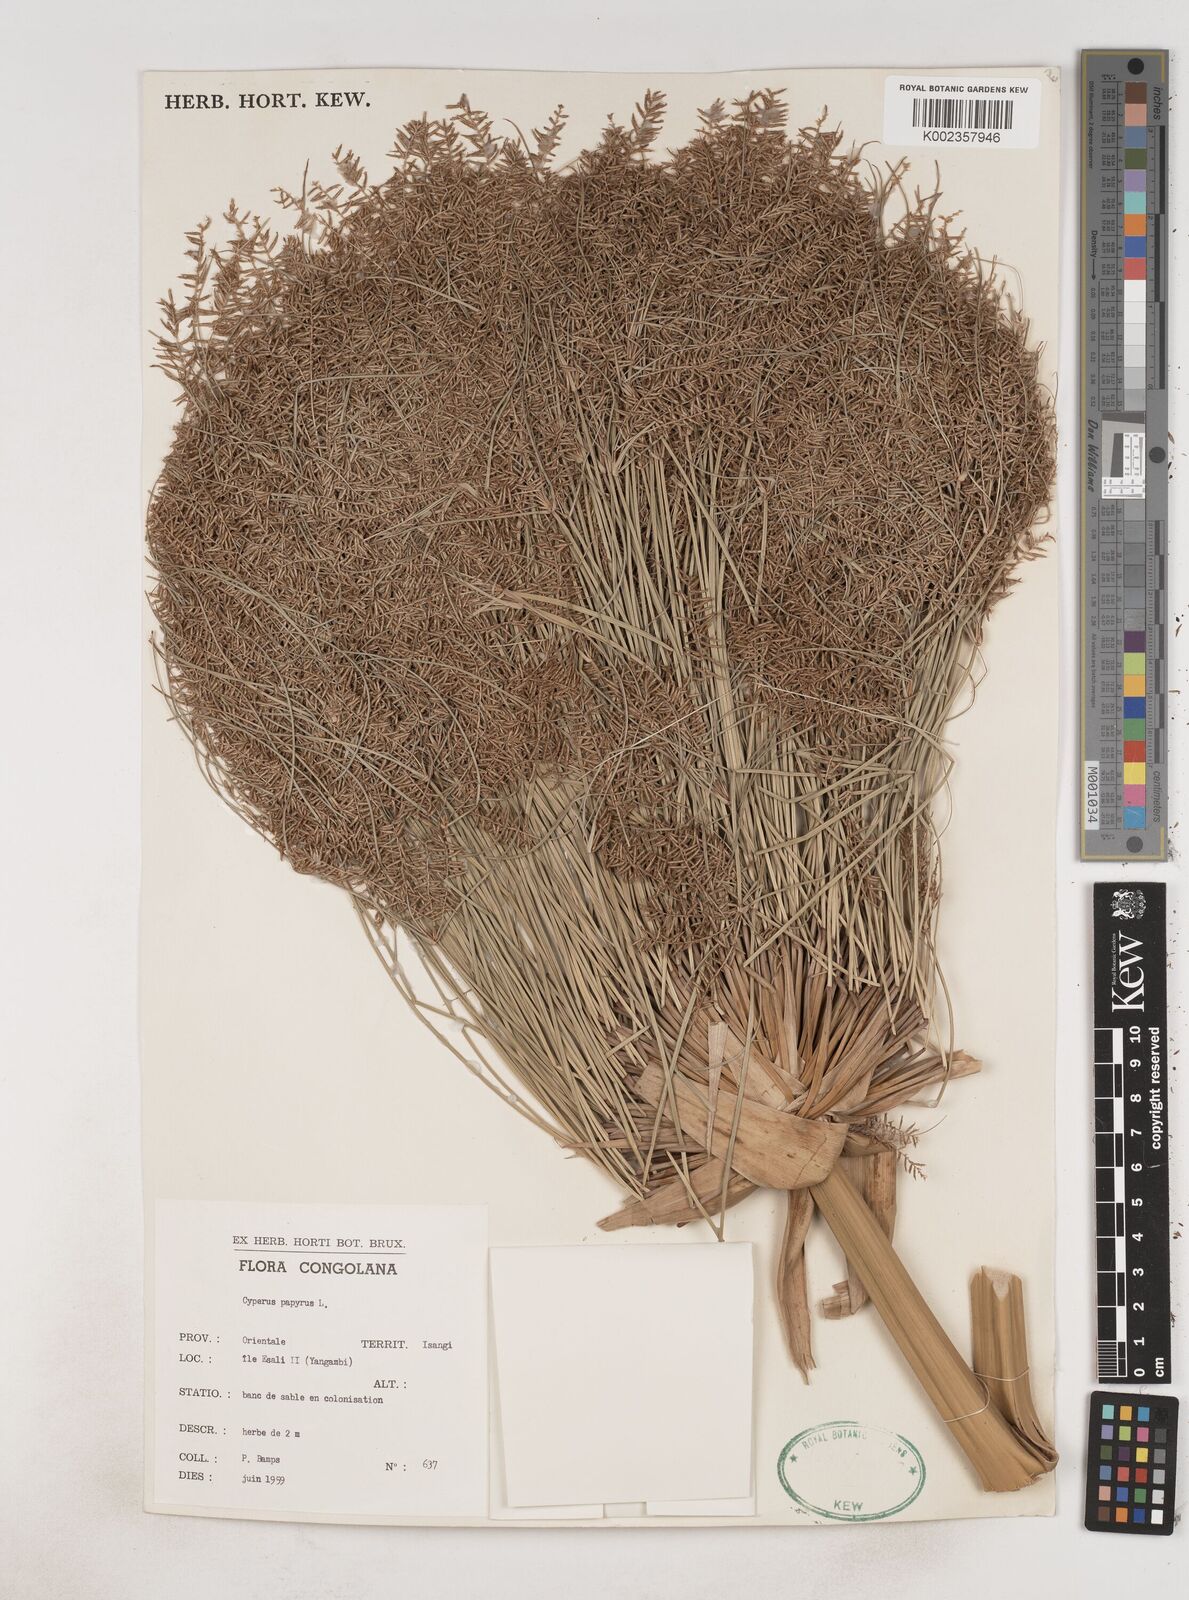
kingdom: Plantae
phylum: Tracheophyta
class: Liliopsida
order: Poales
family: Cyperaceae
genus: Cyperus
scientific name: Cyperus papyrus
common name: Papyrus
